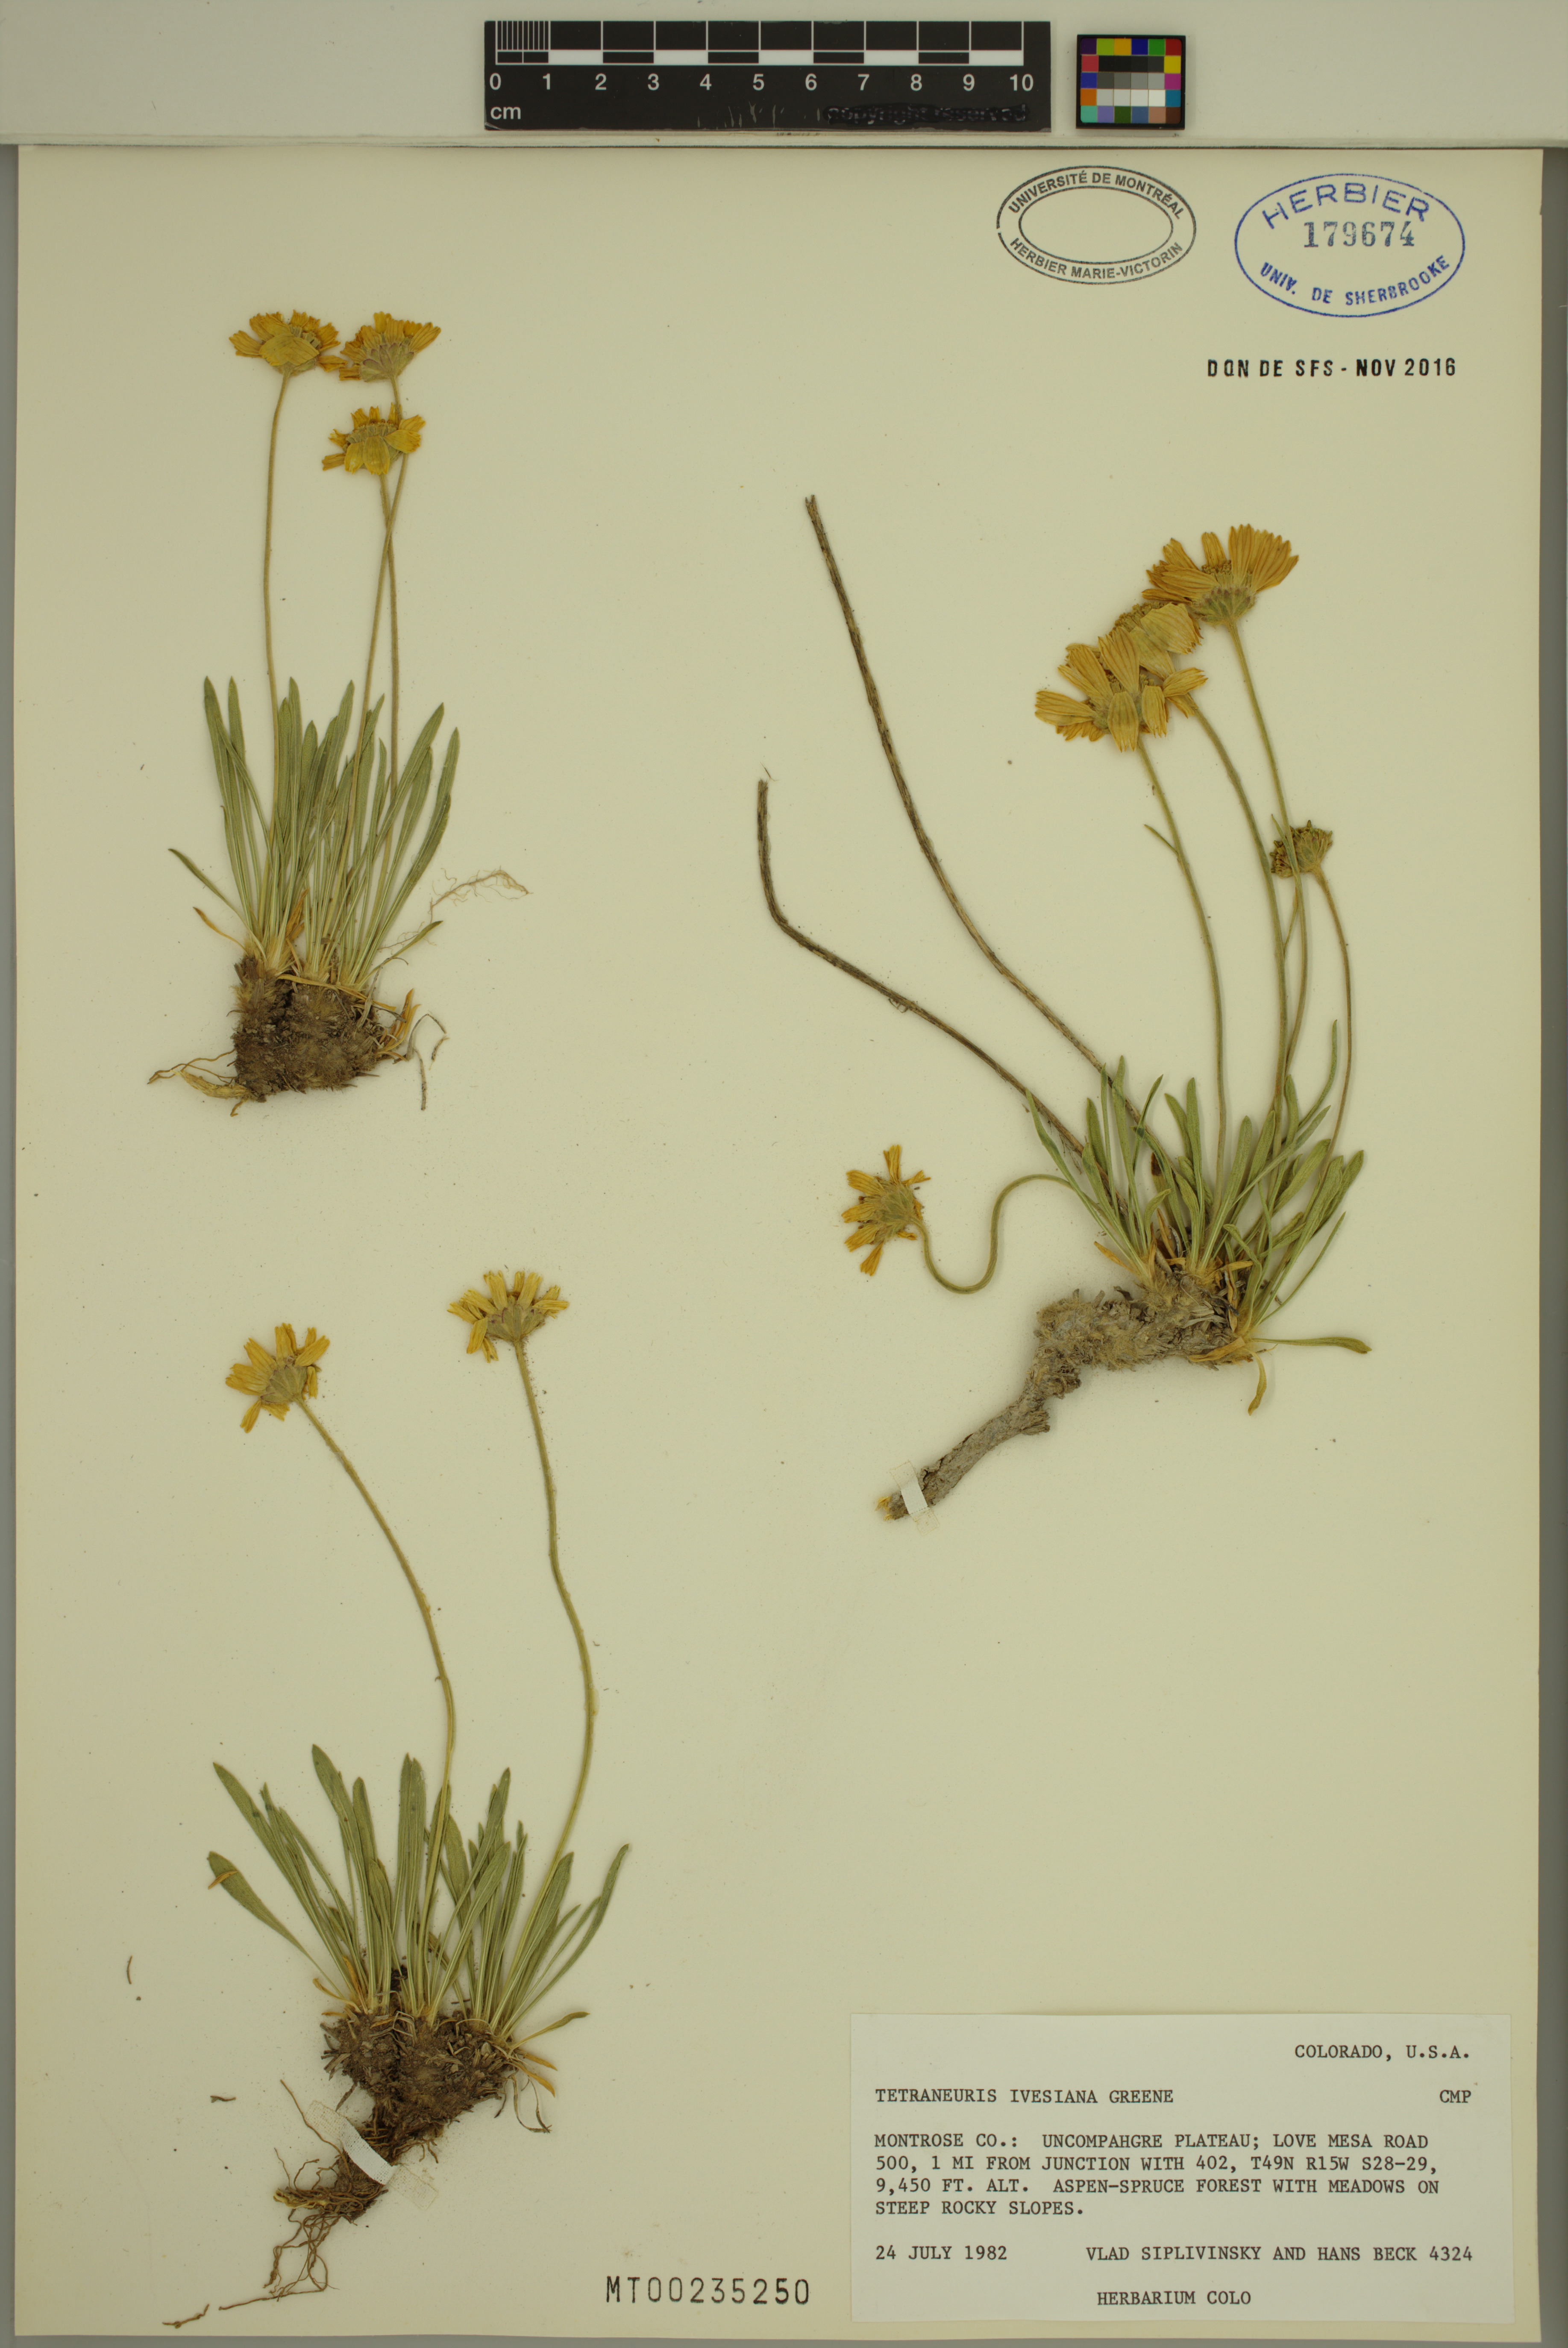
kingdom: Plantae
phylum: Tracheophyta
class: Magnoliopsida
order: Asterales
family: Asteraceae
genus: Tetraneuris
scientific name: Tetraneuris ivesiana
